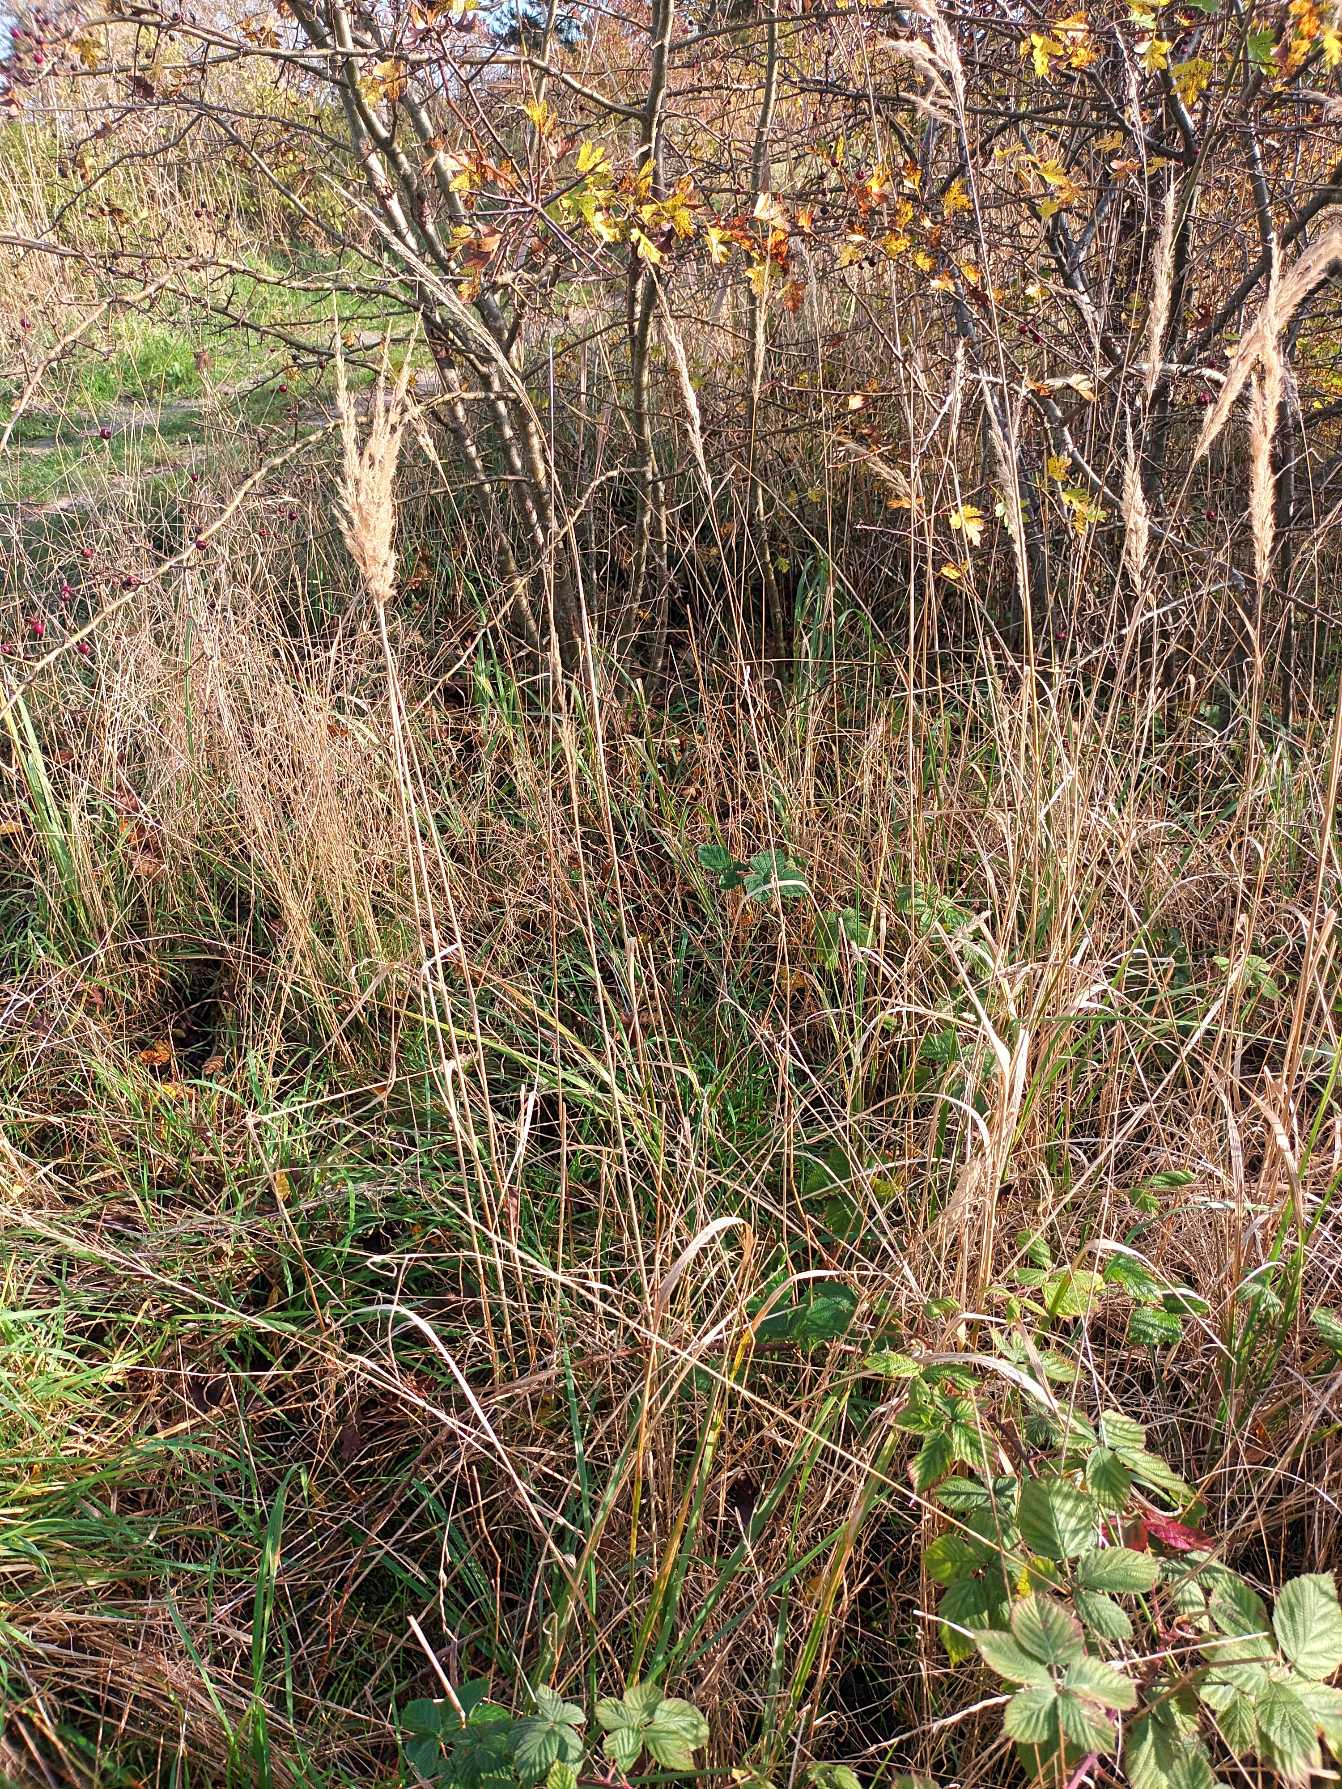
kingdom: Plantae
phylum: Tracheophyta
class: Liliopsida
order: Poales
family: Poaceae
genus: Calamagrostis
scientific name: Calamagrostis epigejos
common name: Bjerg-rørhvene
